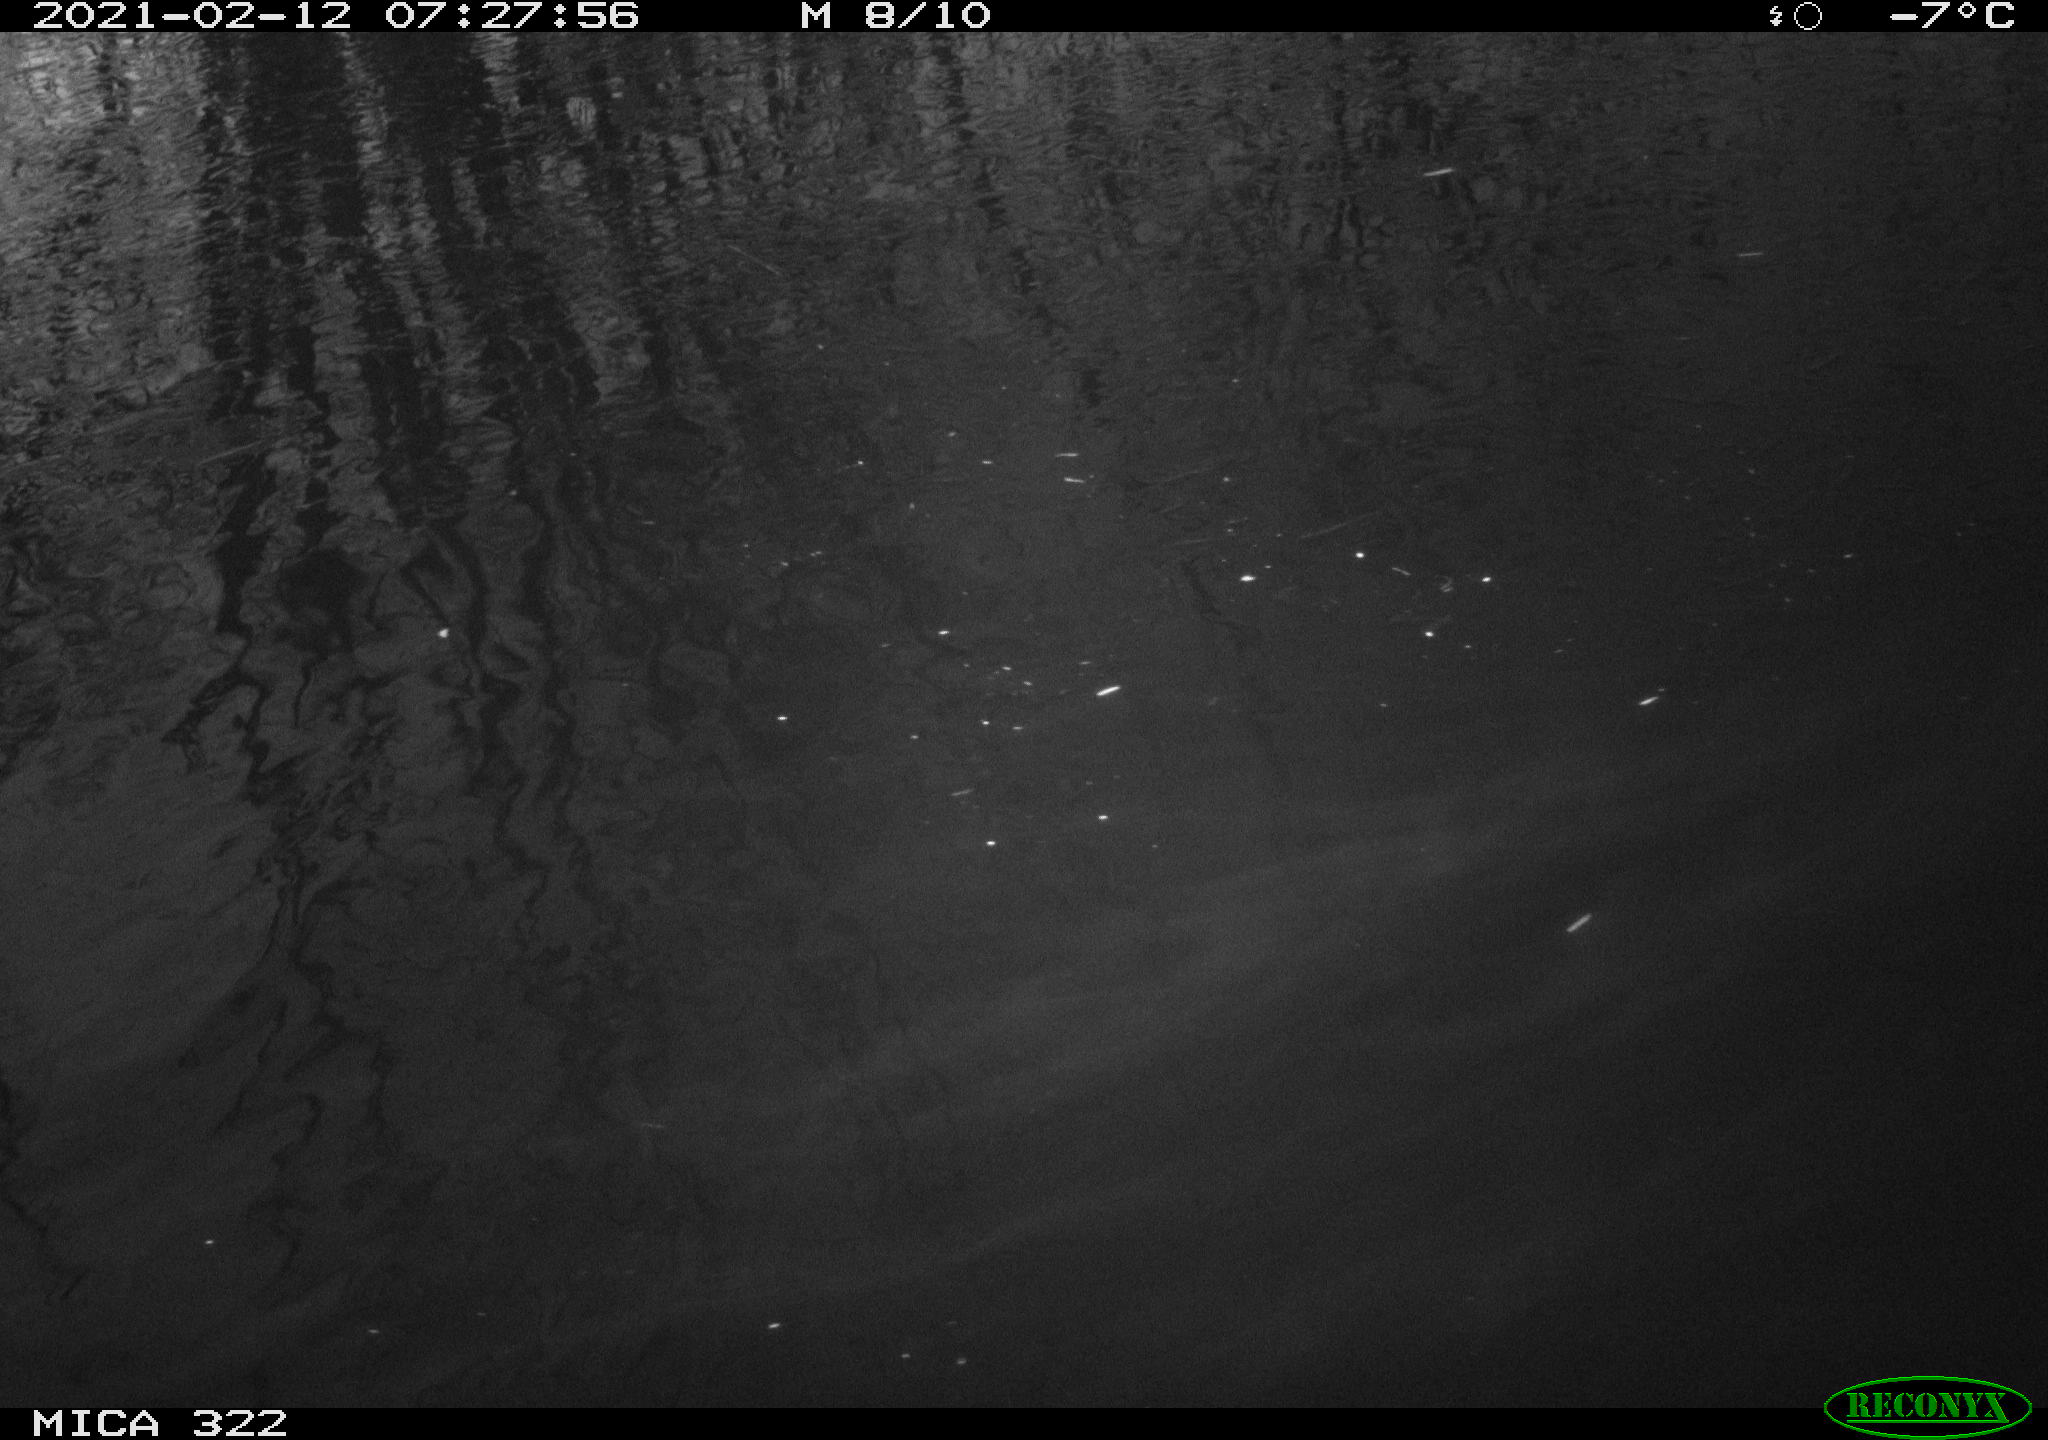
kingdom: Animalia
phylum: Chordata
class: Aves
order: Anseriformes
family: Anatidae
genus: Anas
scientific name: Anas platyrhynchos
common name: Mallard
